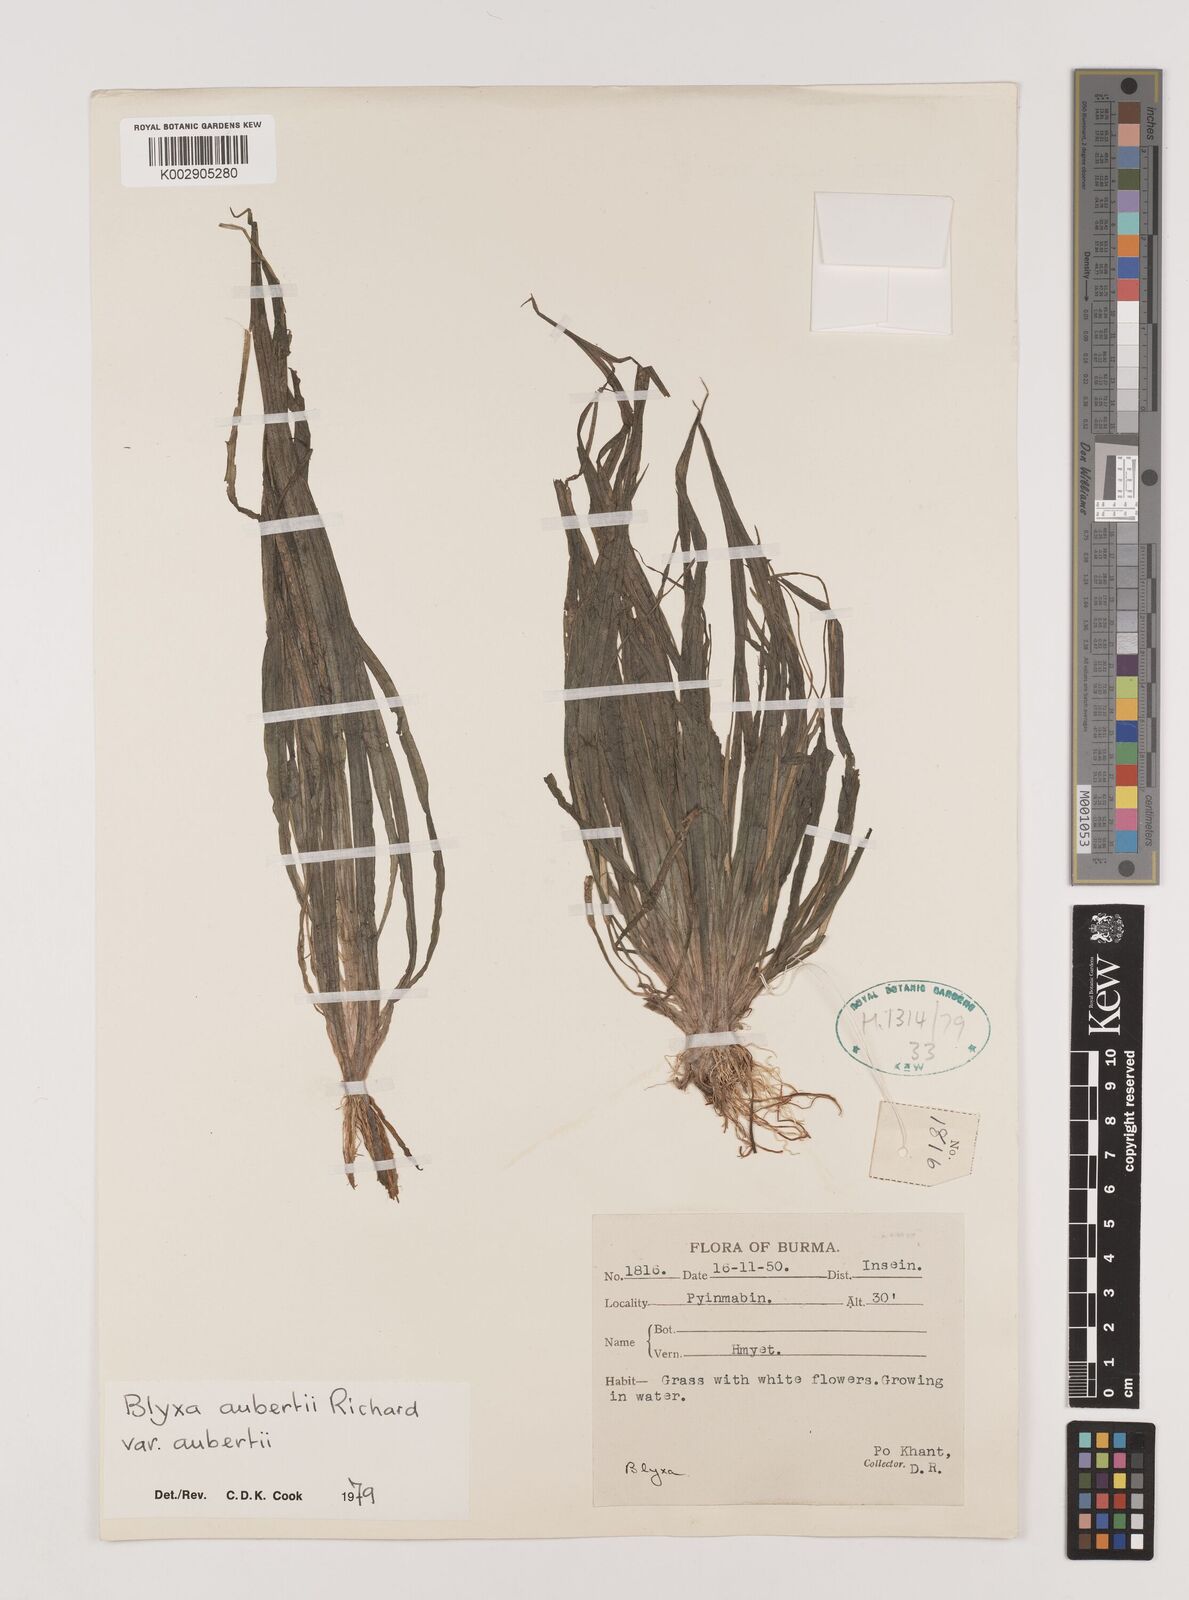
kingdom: Plantae
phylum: Tracheophyta
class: Liliopsida
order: Alismatales
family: Hydrocharitaceae
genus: Blyxa
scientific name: Blyxa aubertii
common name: Roundfruit blyxa
